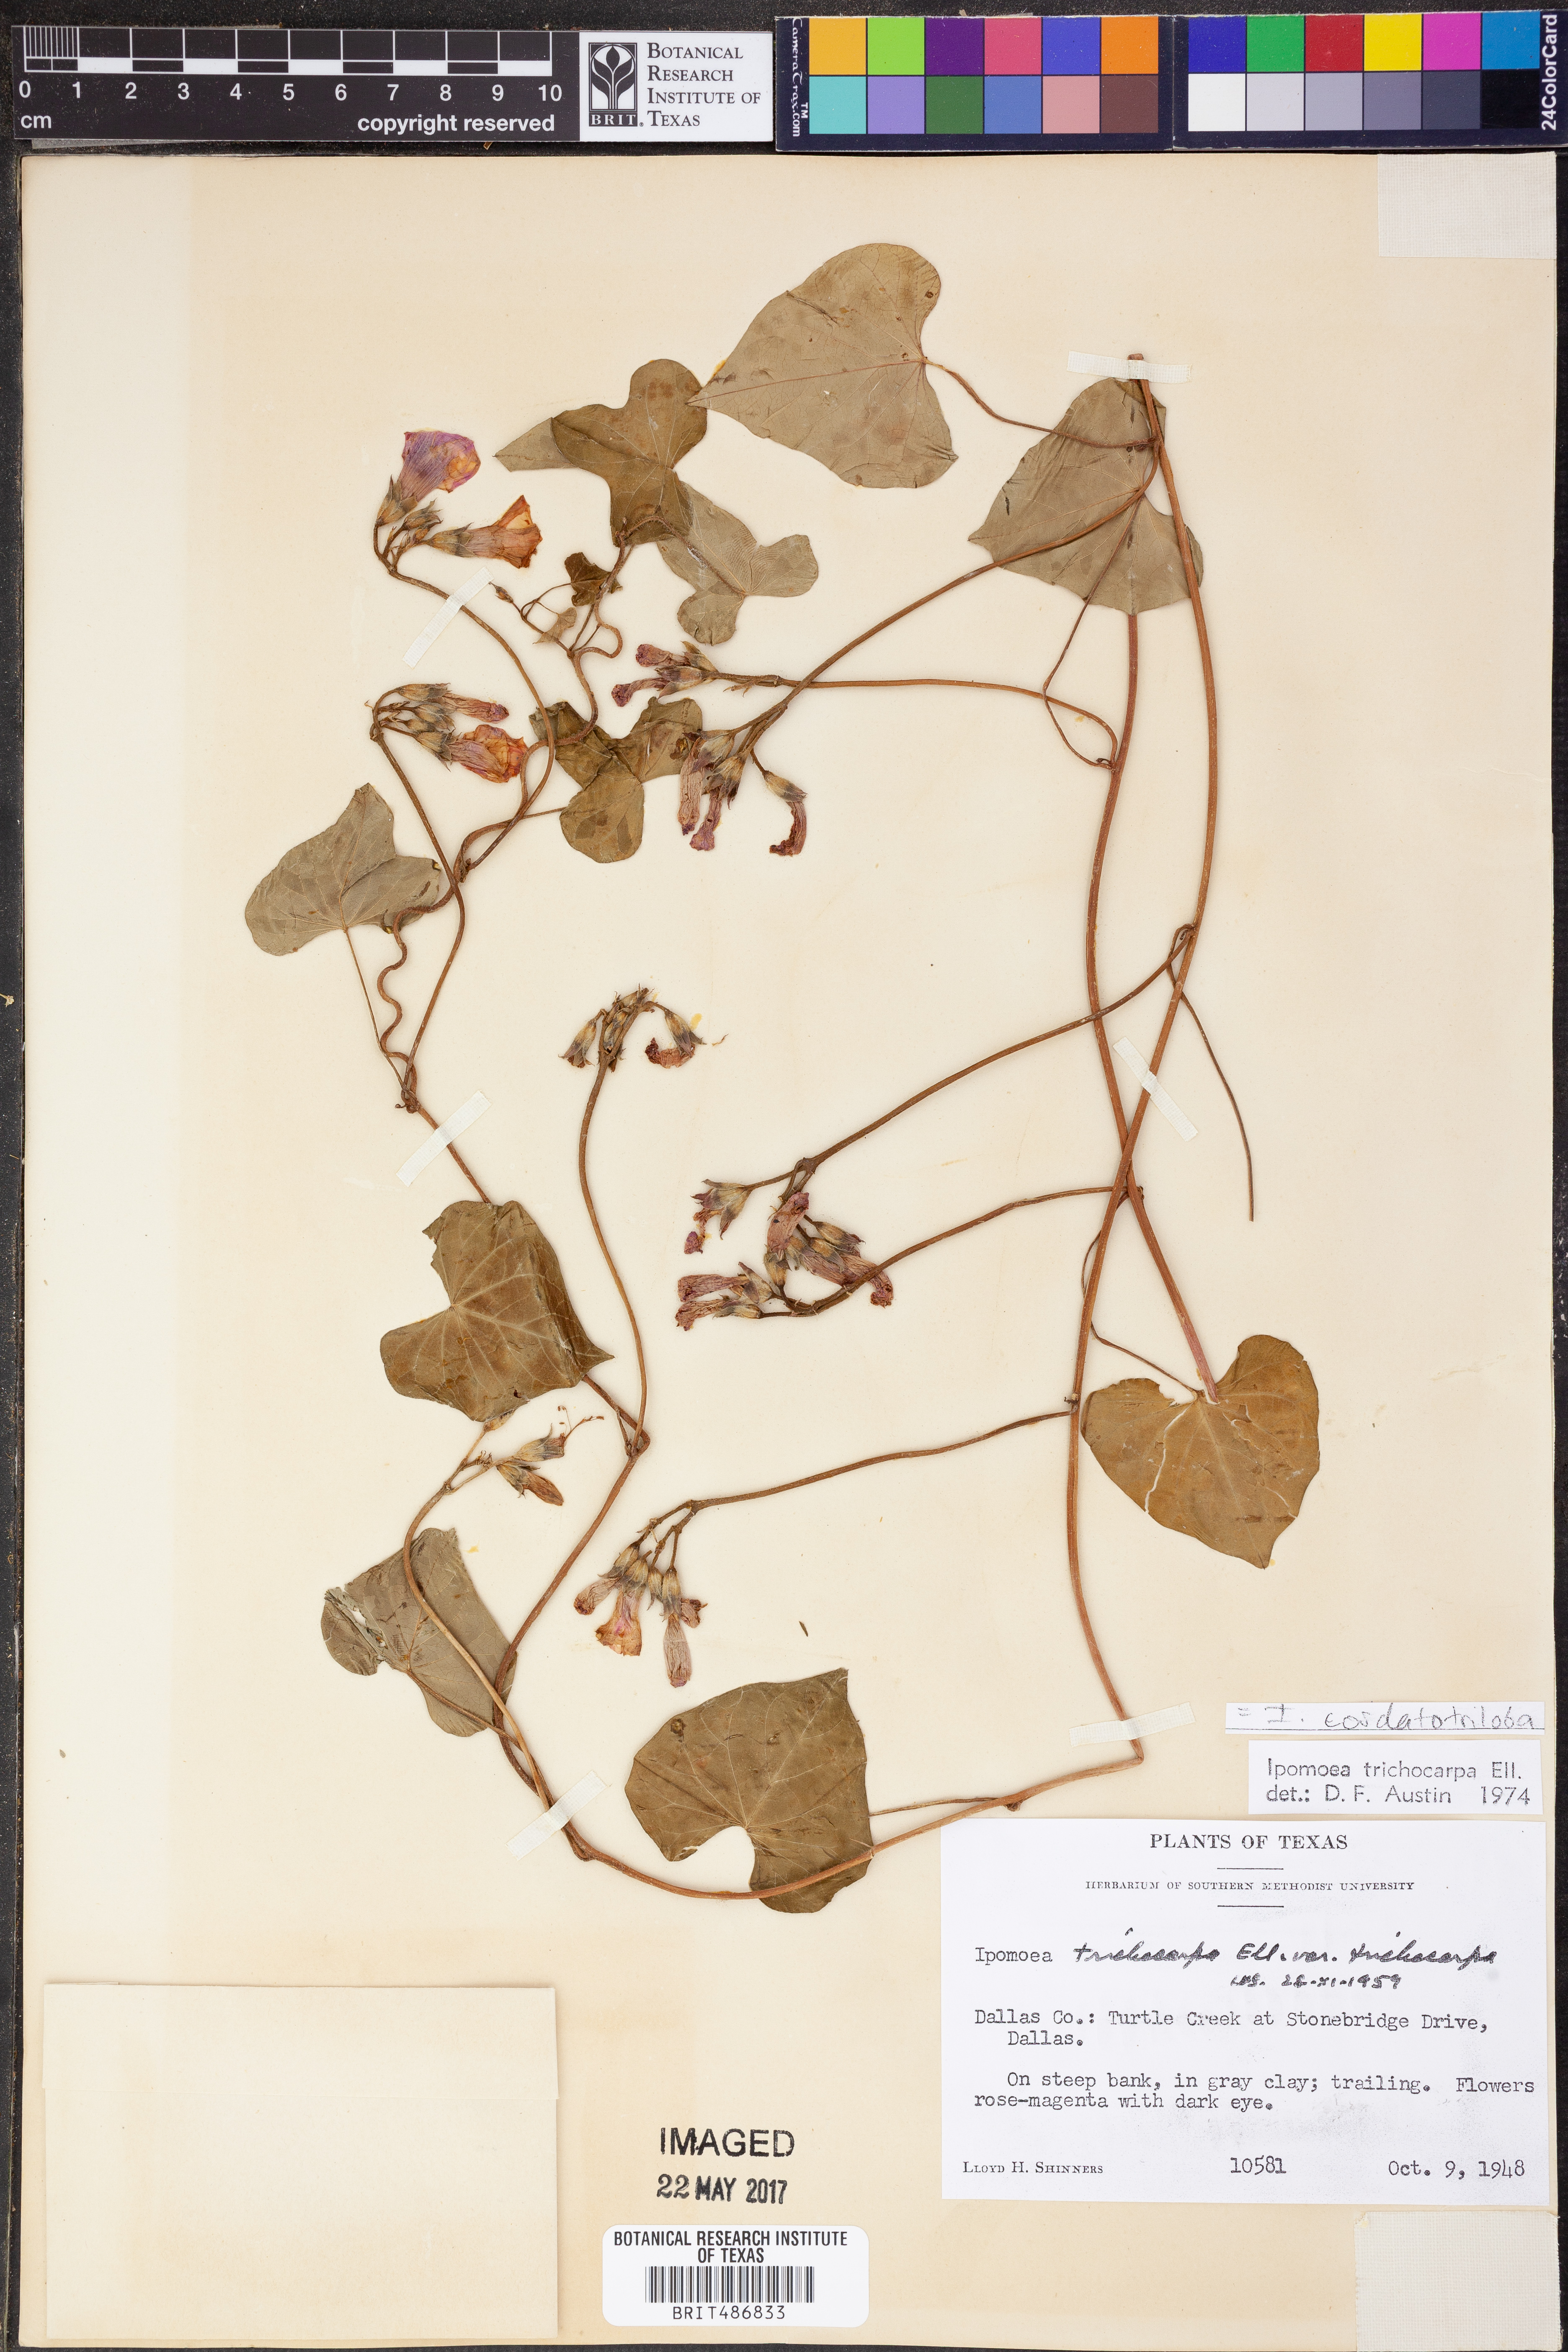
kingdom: Plantae
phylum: Tracheophyta
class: Magnoliopsida
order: Solanales
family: Convolvulaceae
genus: Ipomoea
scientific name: Ipomoea cordatotriloba
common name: Cotton morning glory
